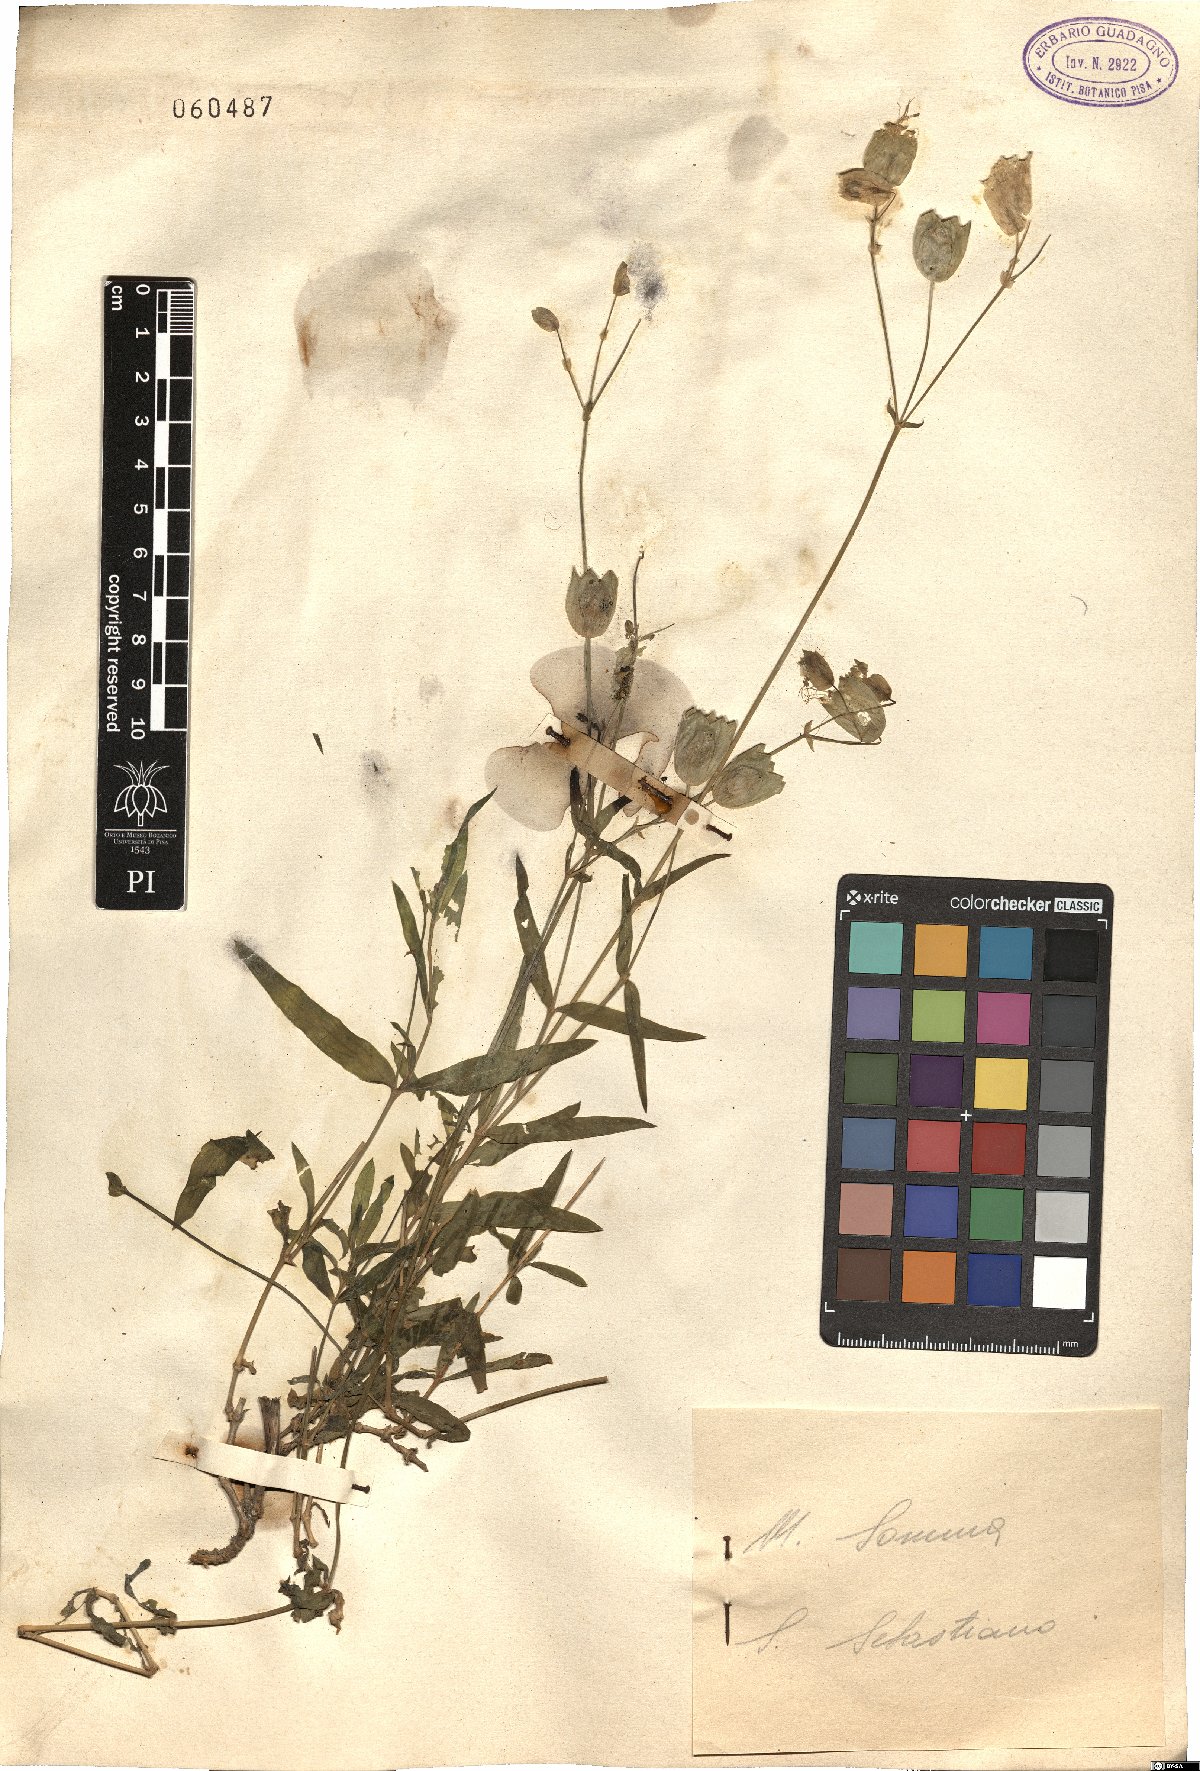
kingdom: Plantae
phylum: Tracheophyta
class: Magnoliopsida
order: Caryophyllales
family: Caryophyllaceae
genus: Silene
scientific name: Silene vulgaris
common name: Bladder campion
